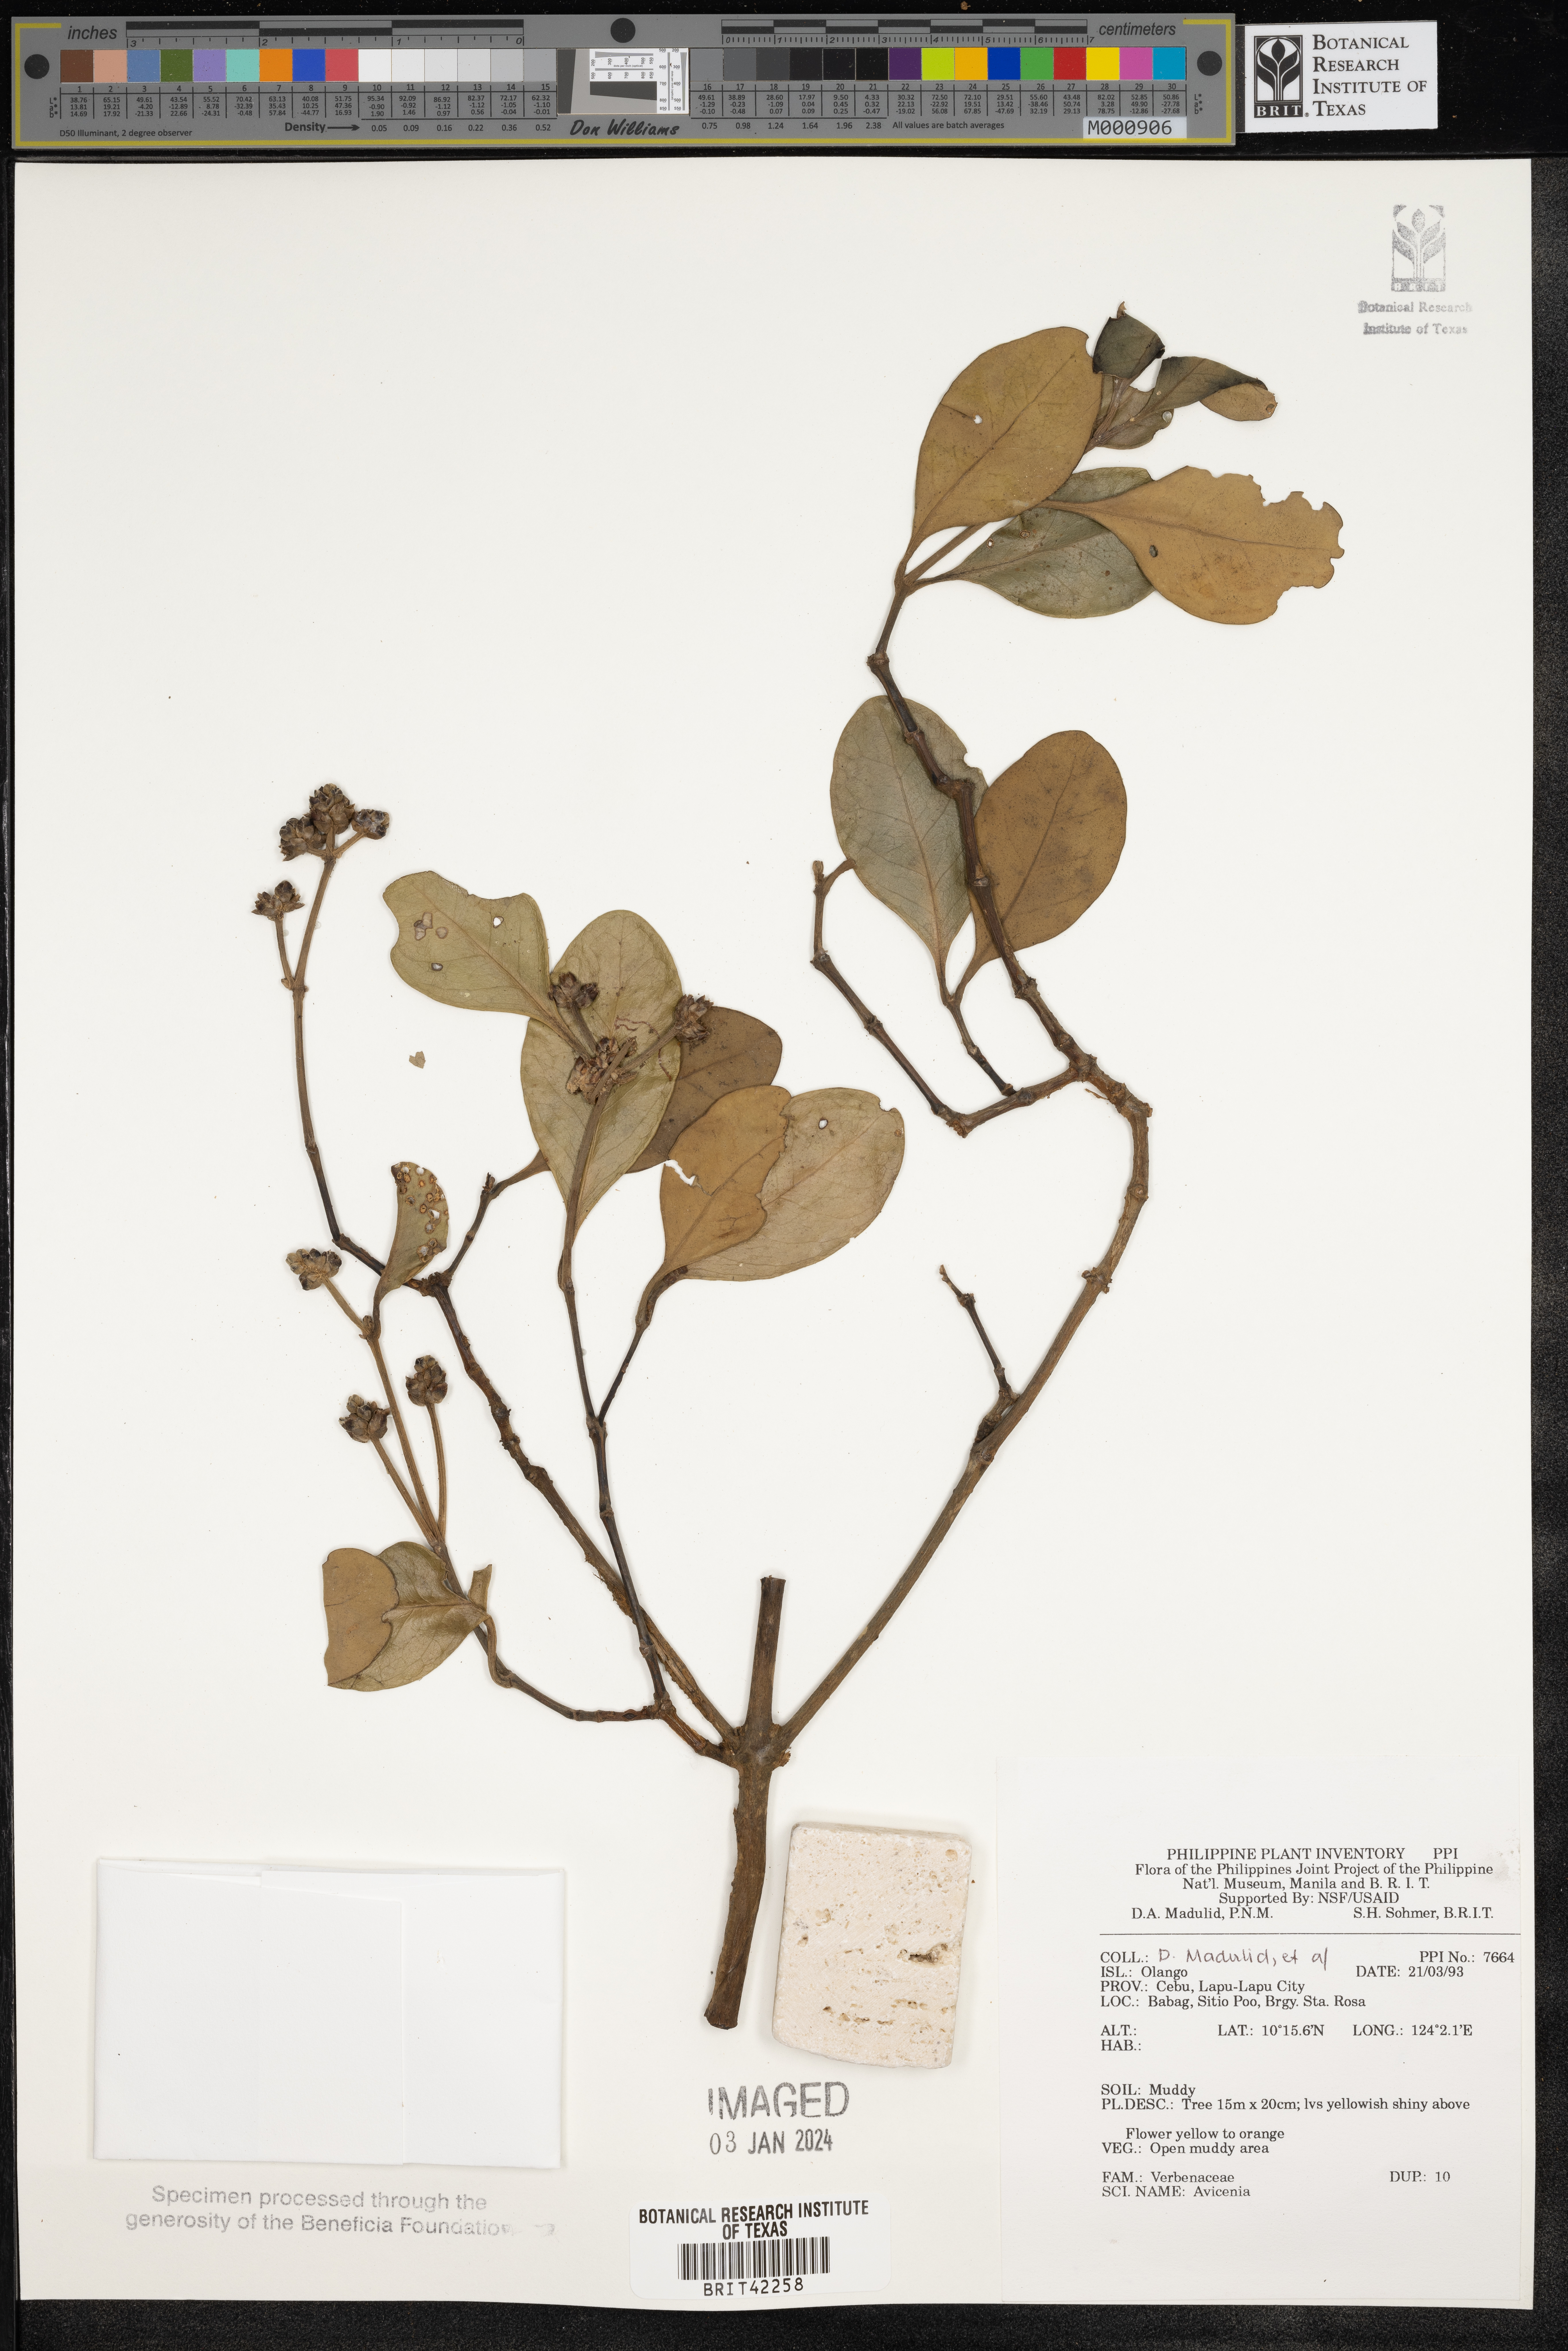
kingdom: Plantae
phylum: Tracheophyta
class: Magnoliopsida
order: Lamiales
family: Acanthaceae
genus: Avicennia
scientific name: Avicennia
